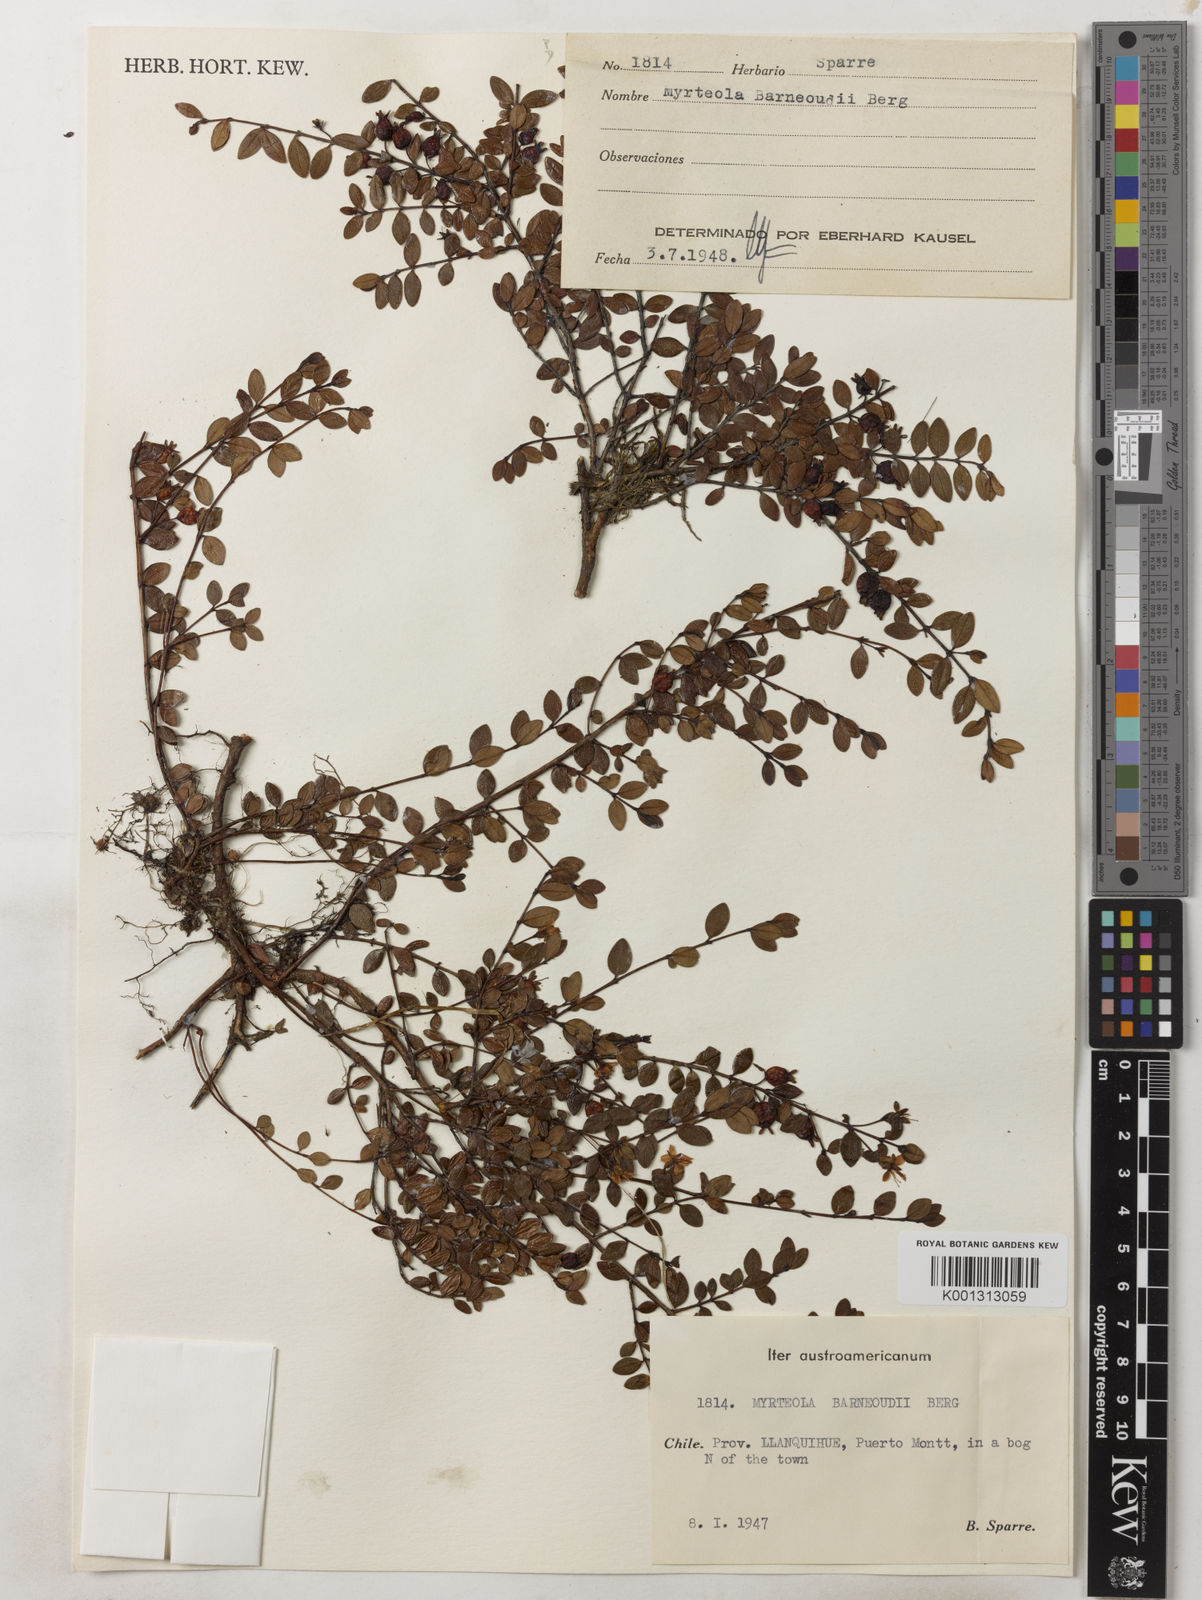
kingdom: Plantae
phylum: Tracheophyta
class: Magnoliopsida
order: Myrtales
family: Myrtaceae
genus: Myrteola
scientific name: Myrteola nummularia
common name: Cranberry-myrtle
